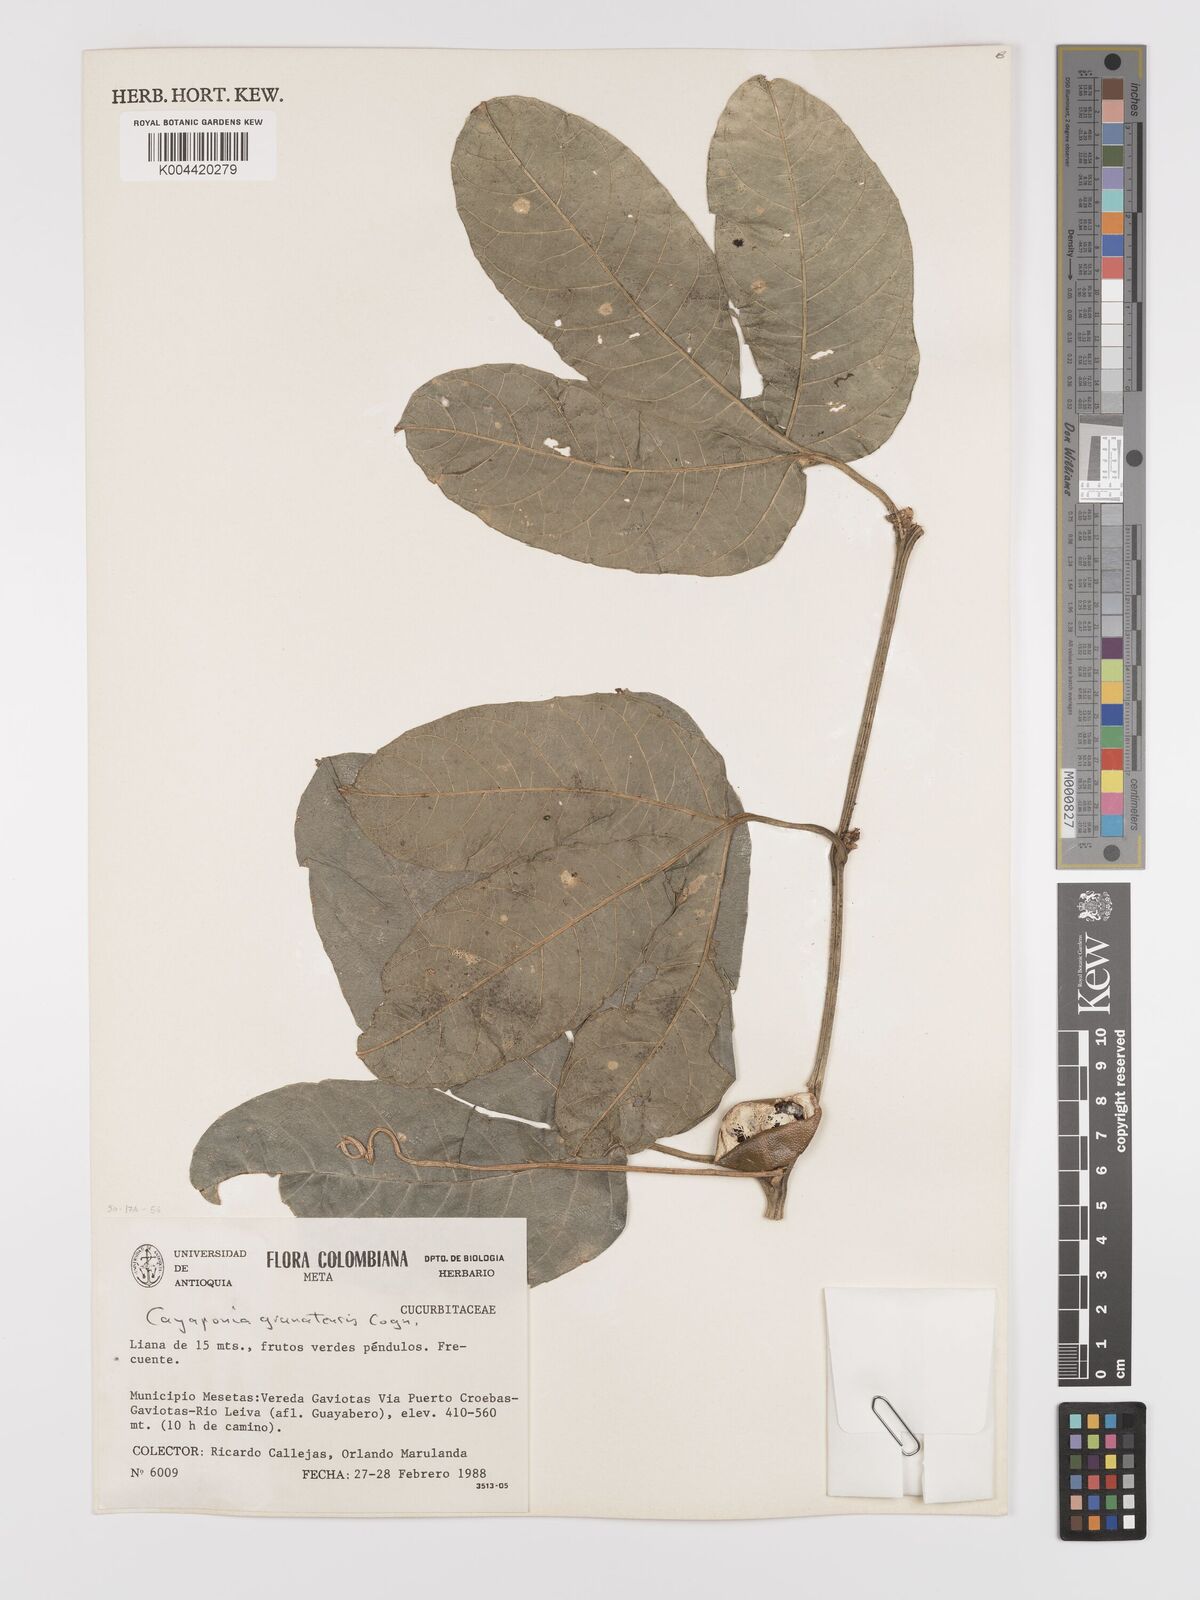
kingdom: Plantae
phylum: Tracheophyta
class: Magnoliopsida
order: Cucurbitales
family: Cucurbitaceae
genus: Cayaponia
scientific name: Cayaponia granatensis
